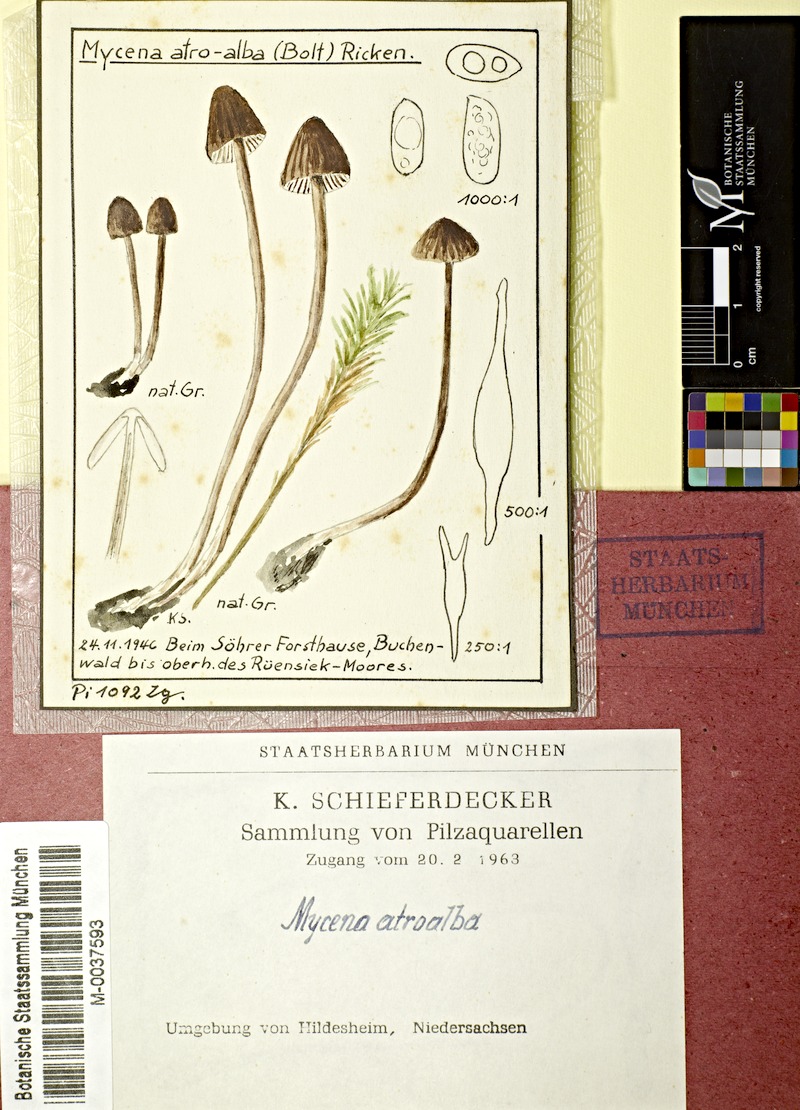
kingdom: Fungi
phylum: Basidiomycota
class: Agaricomycetes
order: Agaricales
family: Mycenaceae
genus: Mycena
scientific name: Mycena atroalba
